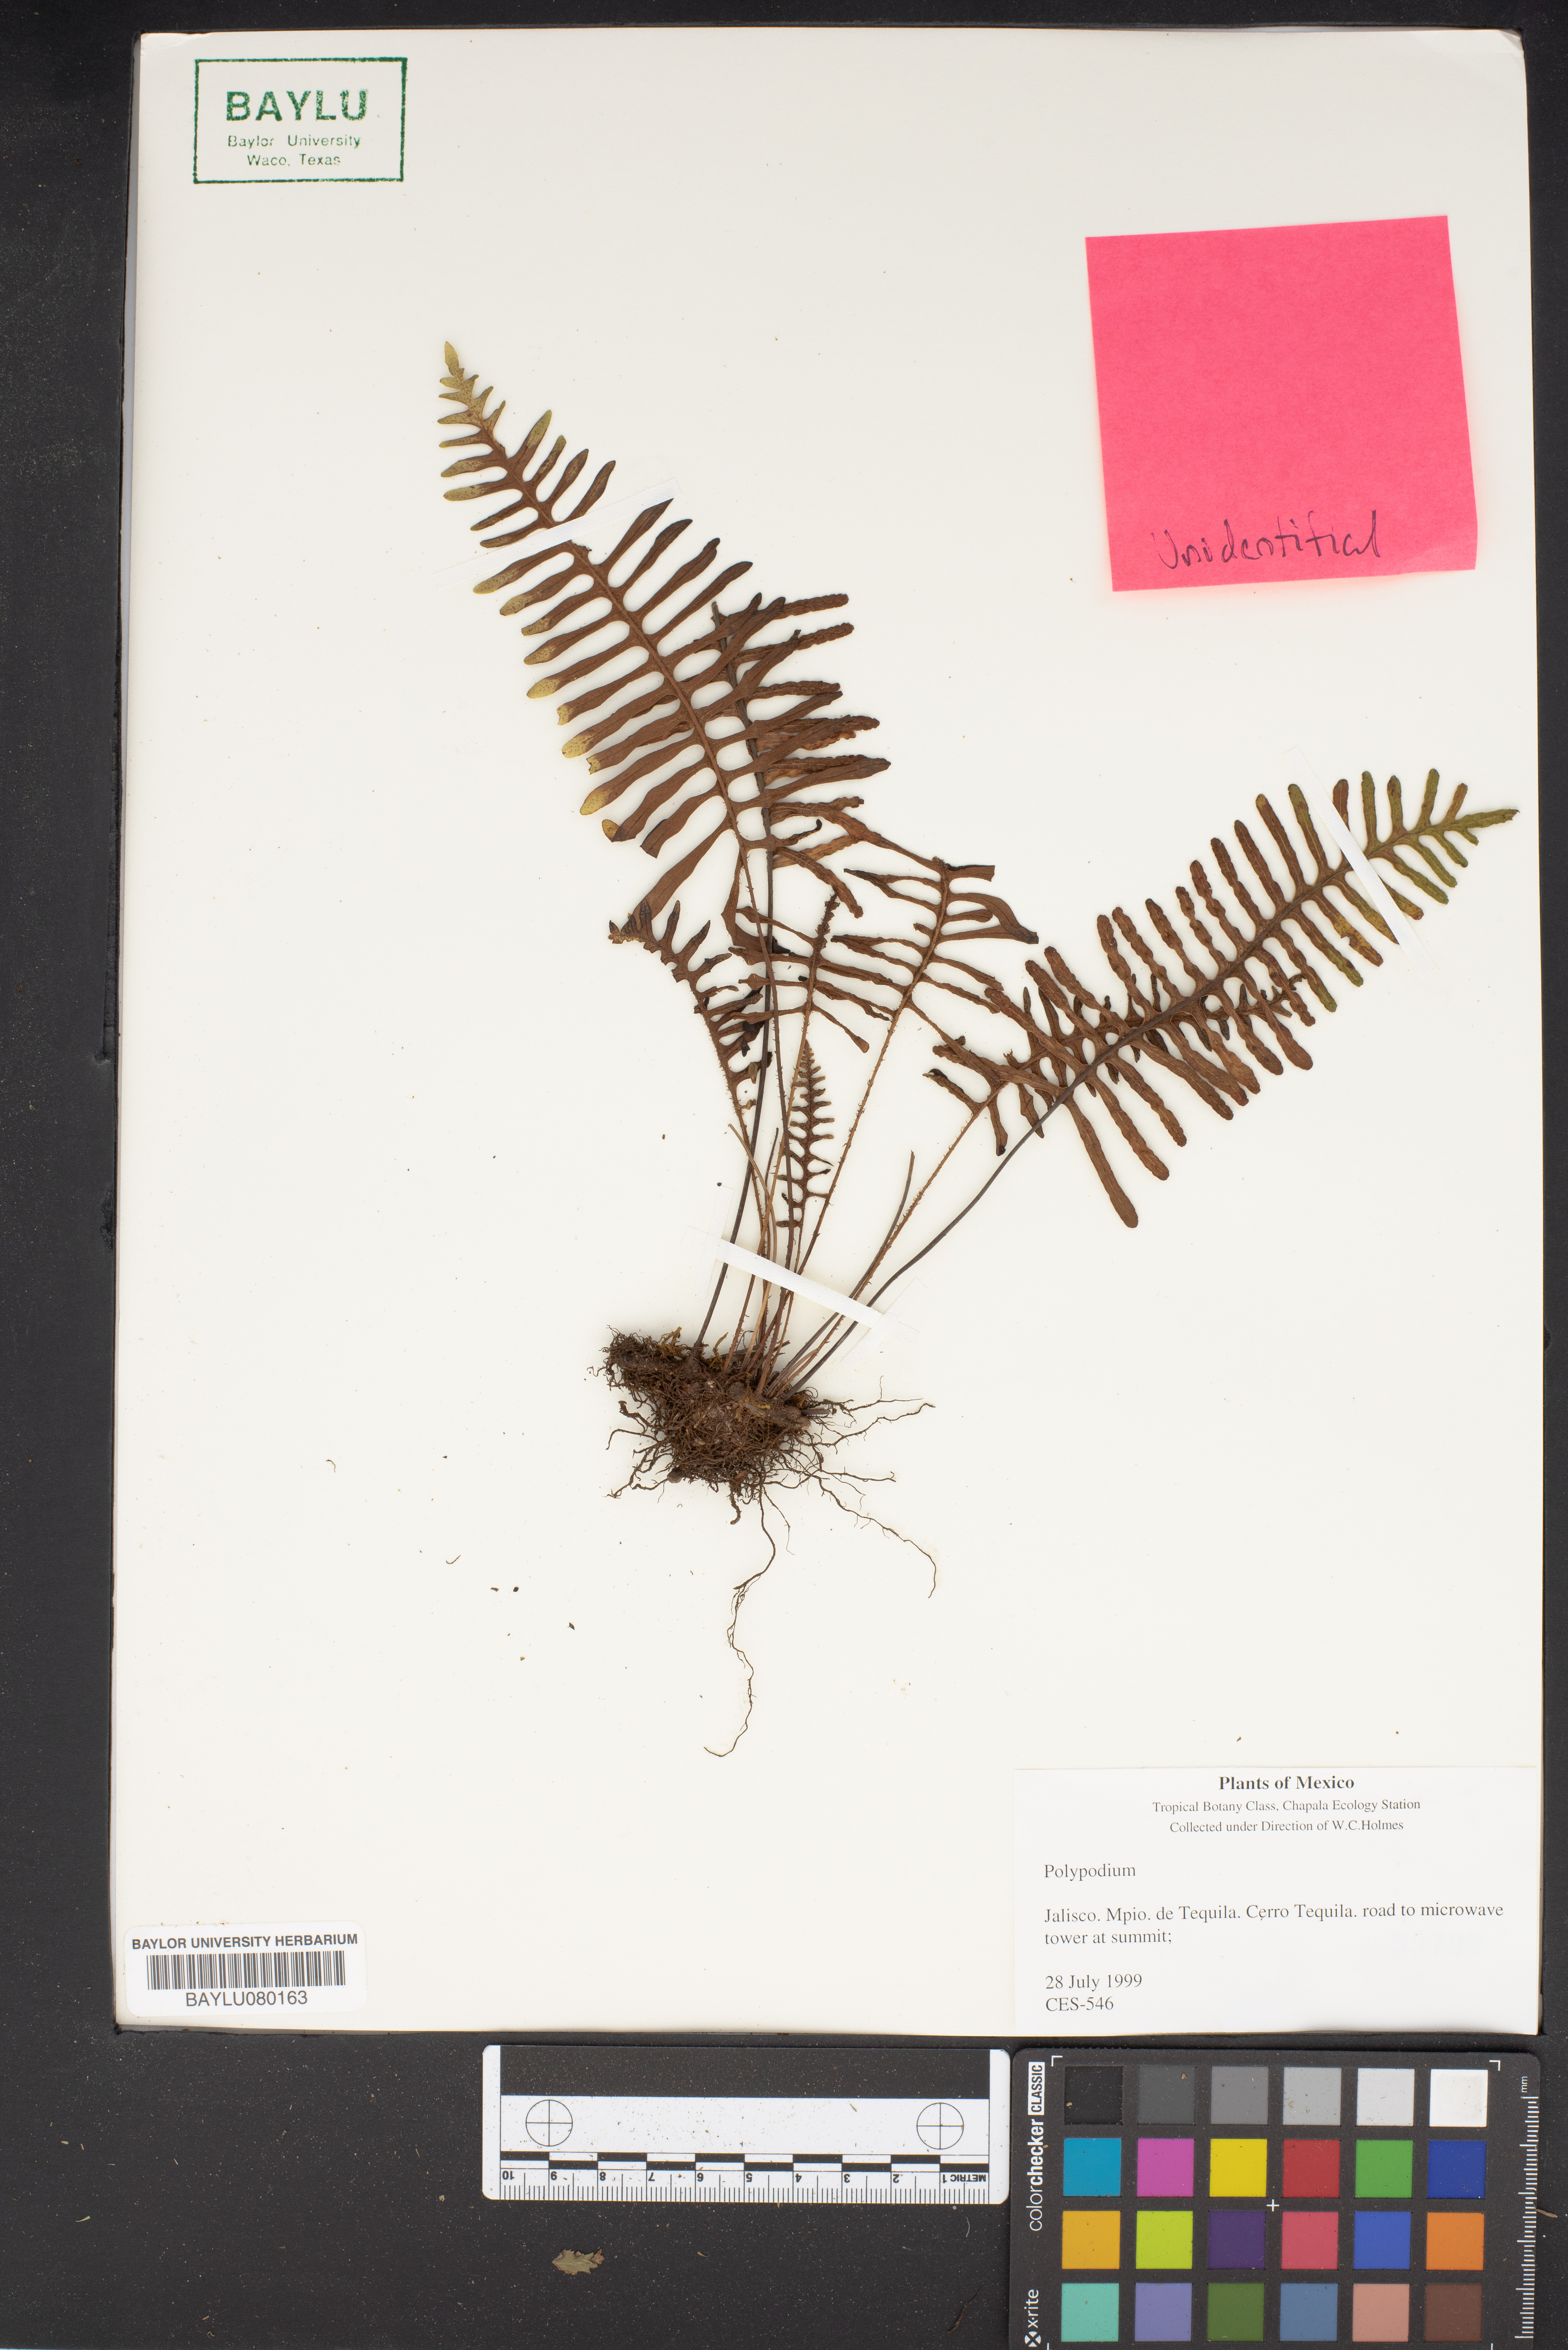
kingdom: Plantae
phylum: Tracheophyta
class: Polypodiopsida
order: Polypodiales
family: Polypodiaceae
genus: Polypodium
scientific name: Polypodium
